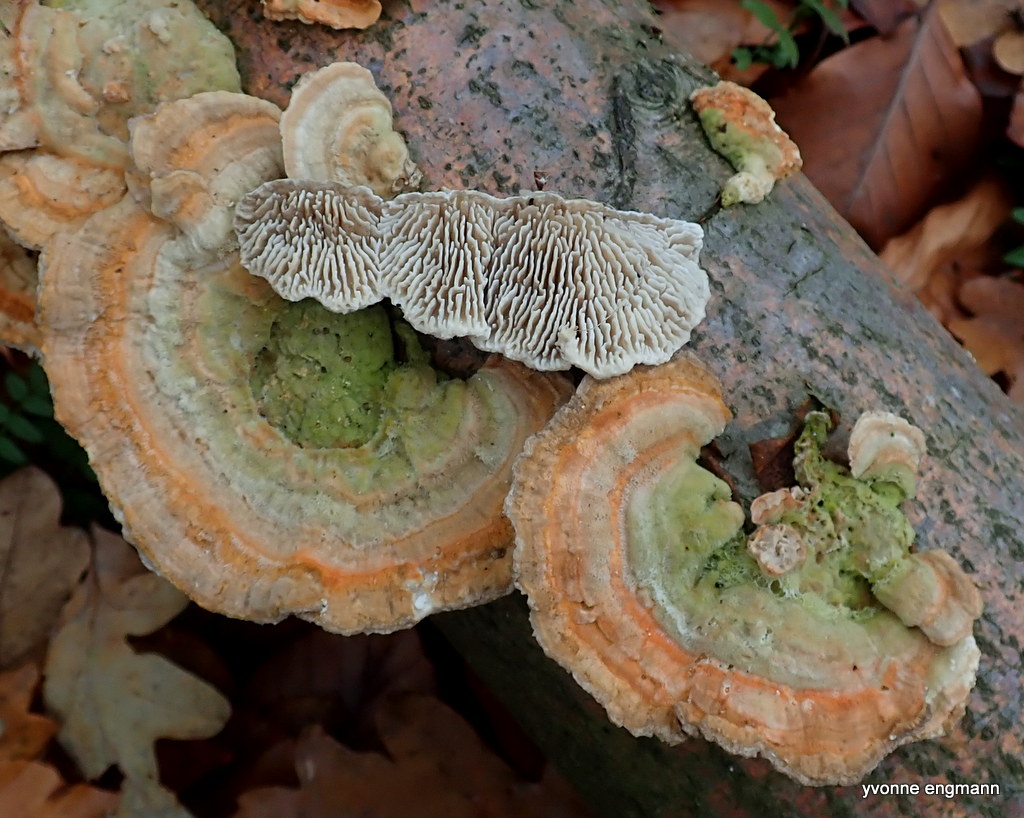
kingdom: Fungi
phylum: Basidiomycota
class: Agaricomycetes
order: Polyporales
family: Polyporaceae
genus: Lenzites
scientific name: Lenzites betulinus
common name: birke-læderporesvamp
